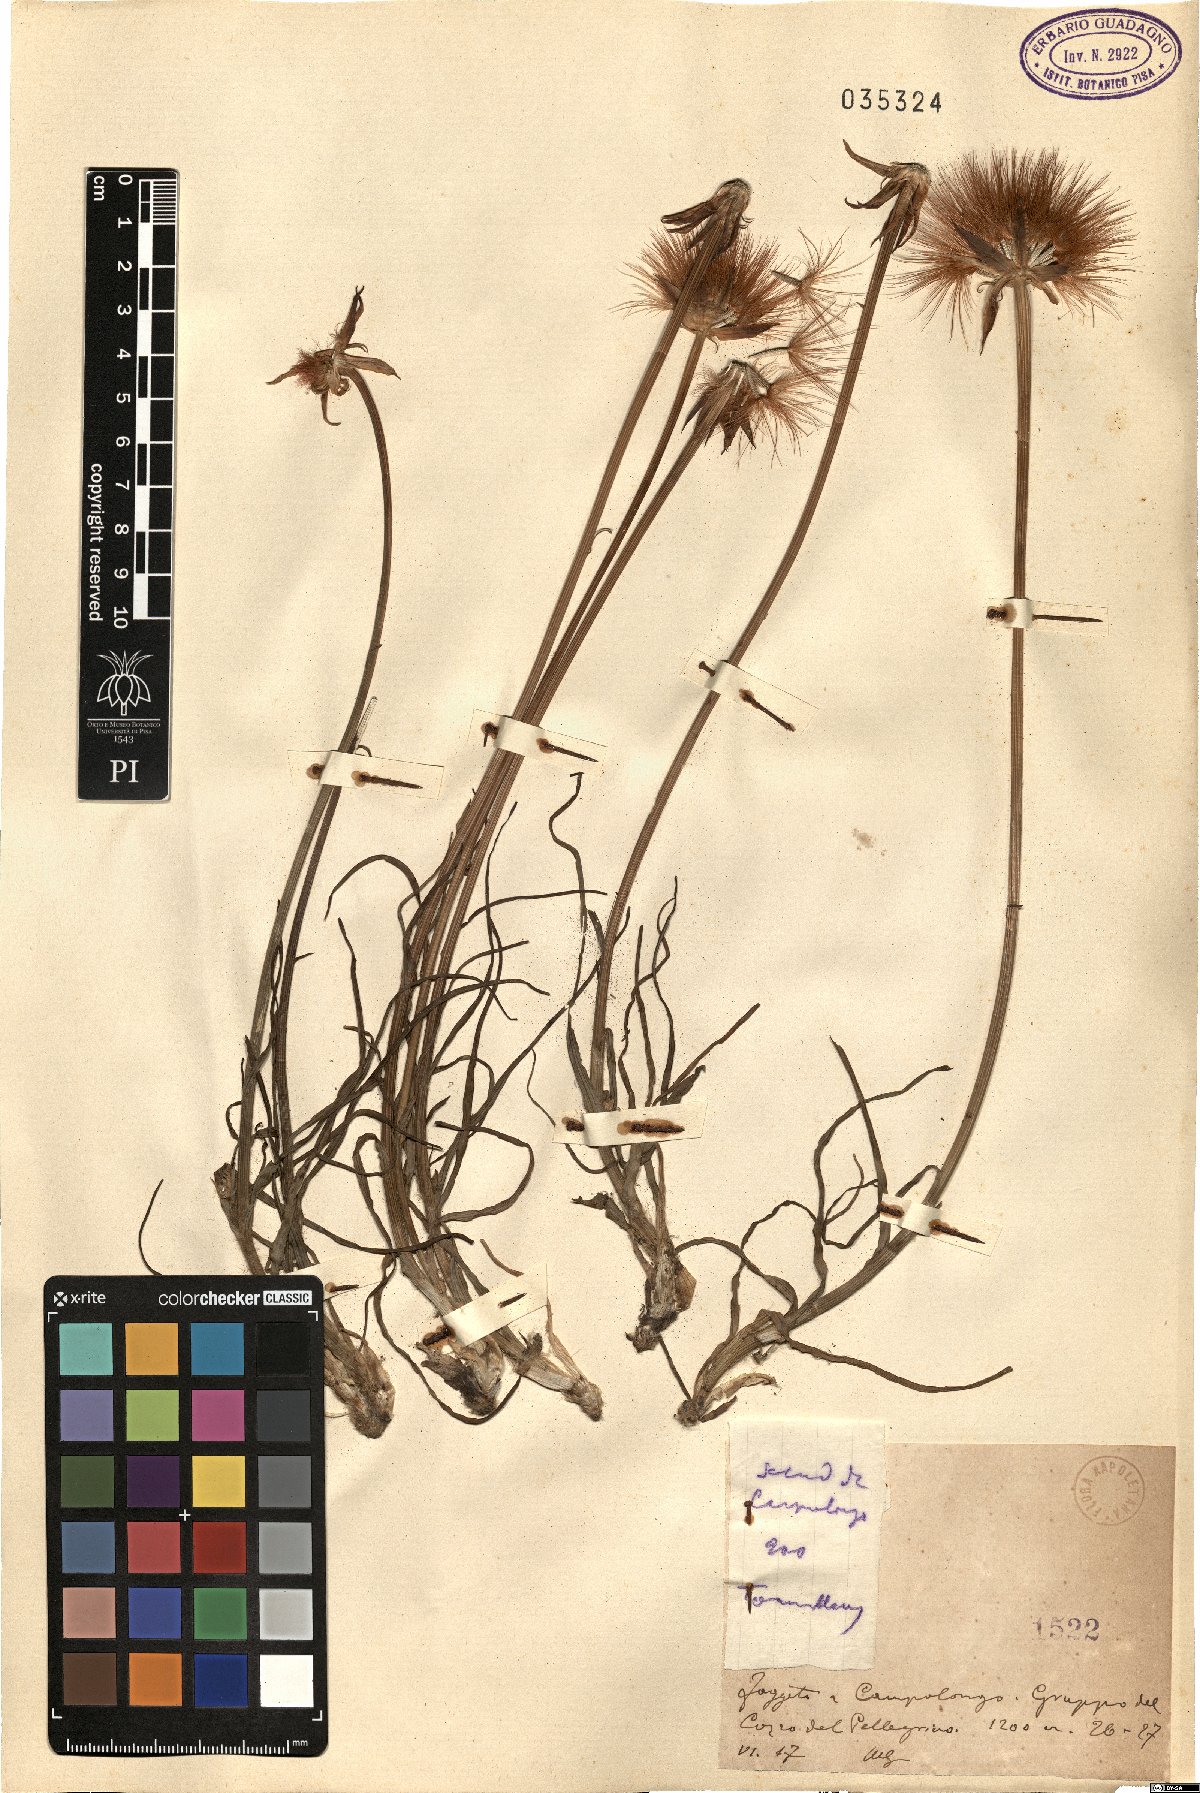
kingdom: Plantae
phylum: Tracheophyta
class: Magnoliopsida
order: Asterales
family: Asteraceae
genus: Geropogon
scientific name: Geropogon
